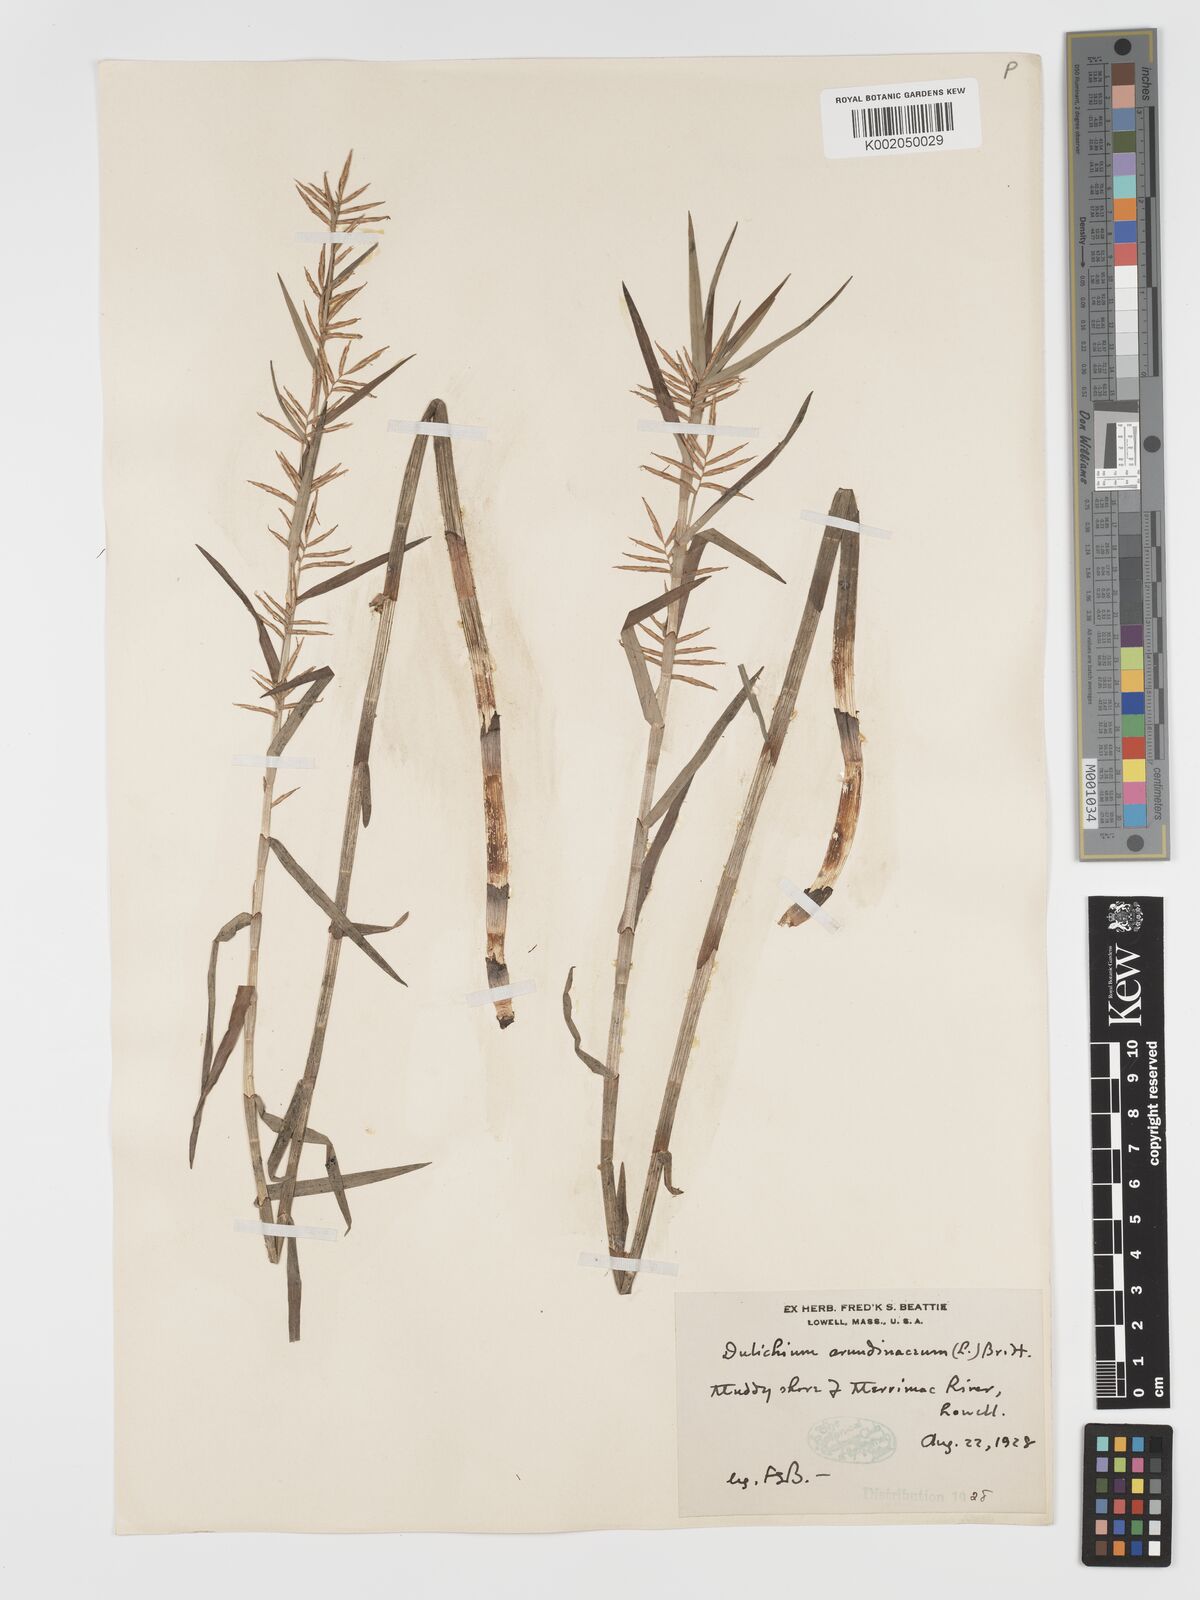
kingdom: Plantae
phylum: Tracheophyta
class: Liliopsida
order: Poales
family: Cyperaceae
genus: Dulichium
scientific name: Dulichium arundinaceum
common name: Three-way sedge
